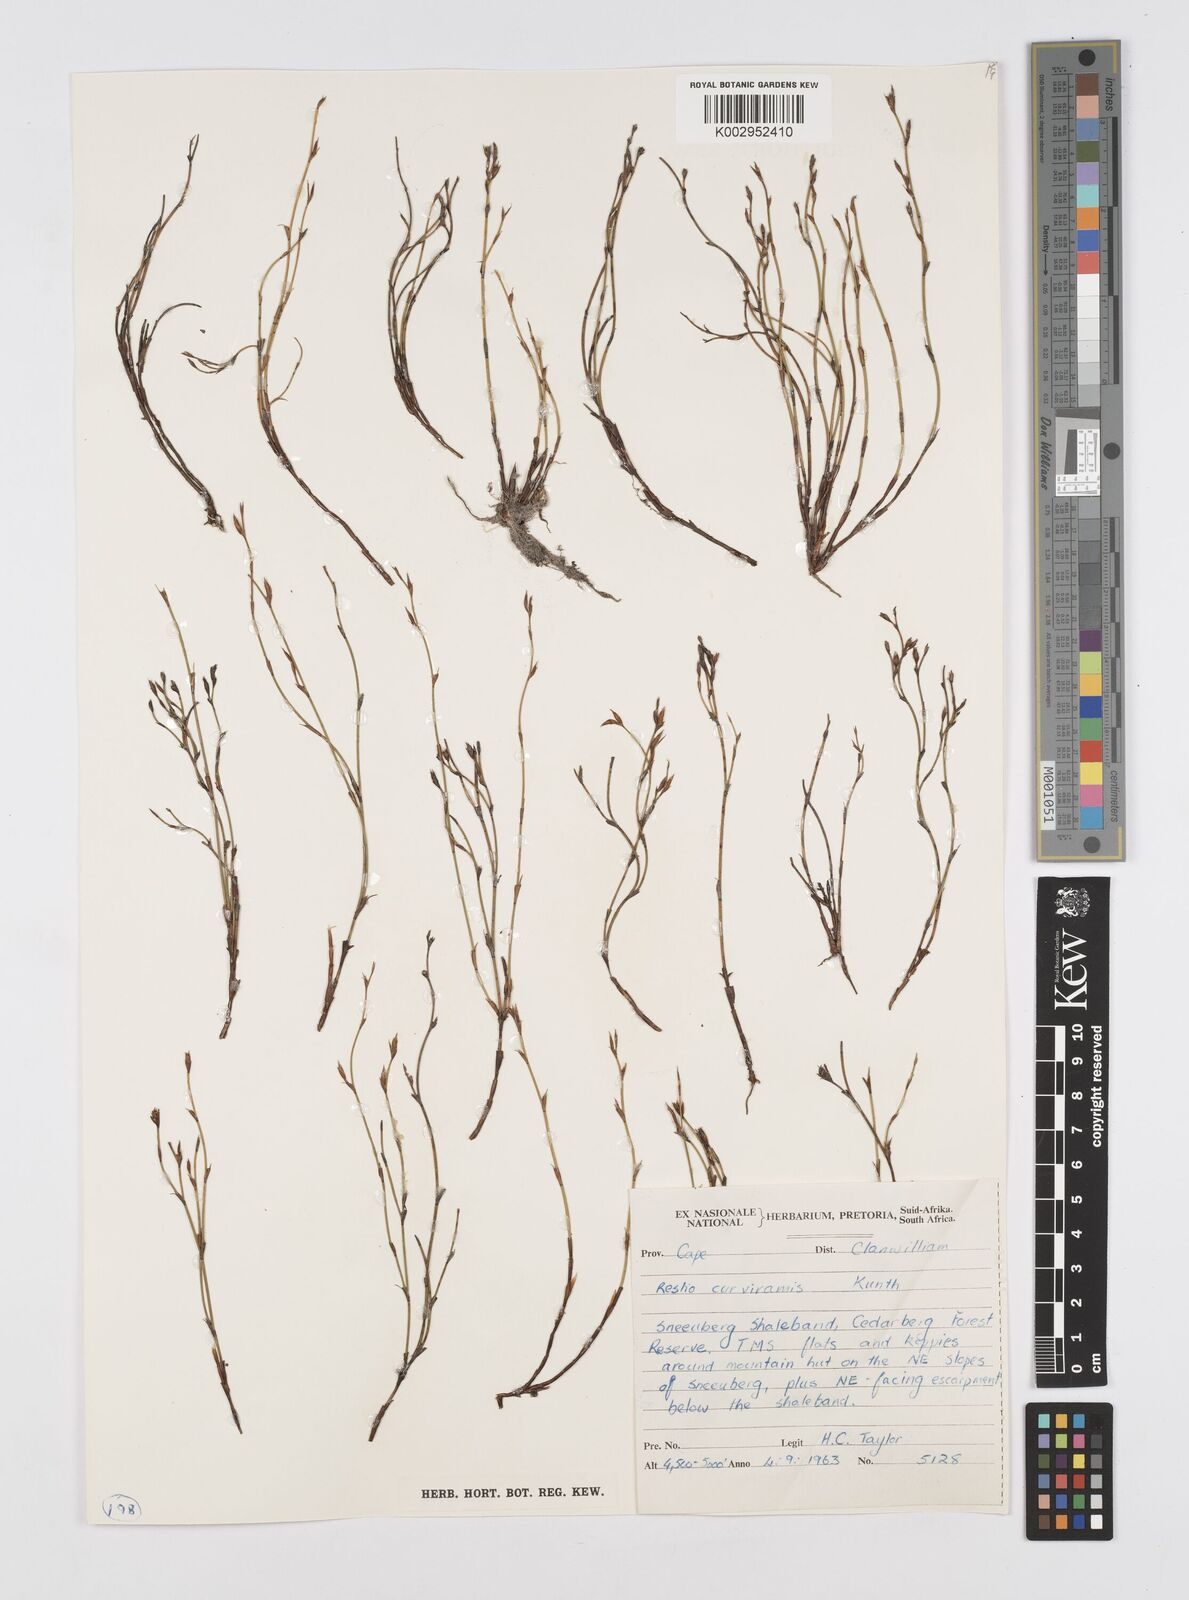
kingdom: Plantae
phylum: Tracheophyta
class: Liliopsida
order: Poales
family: Restionaceae
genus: Restio
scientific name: Restio curviramis
